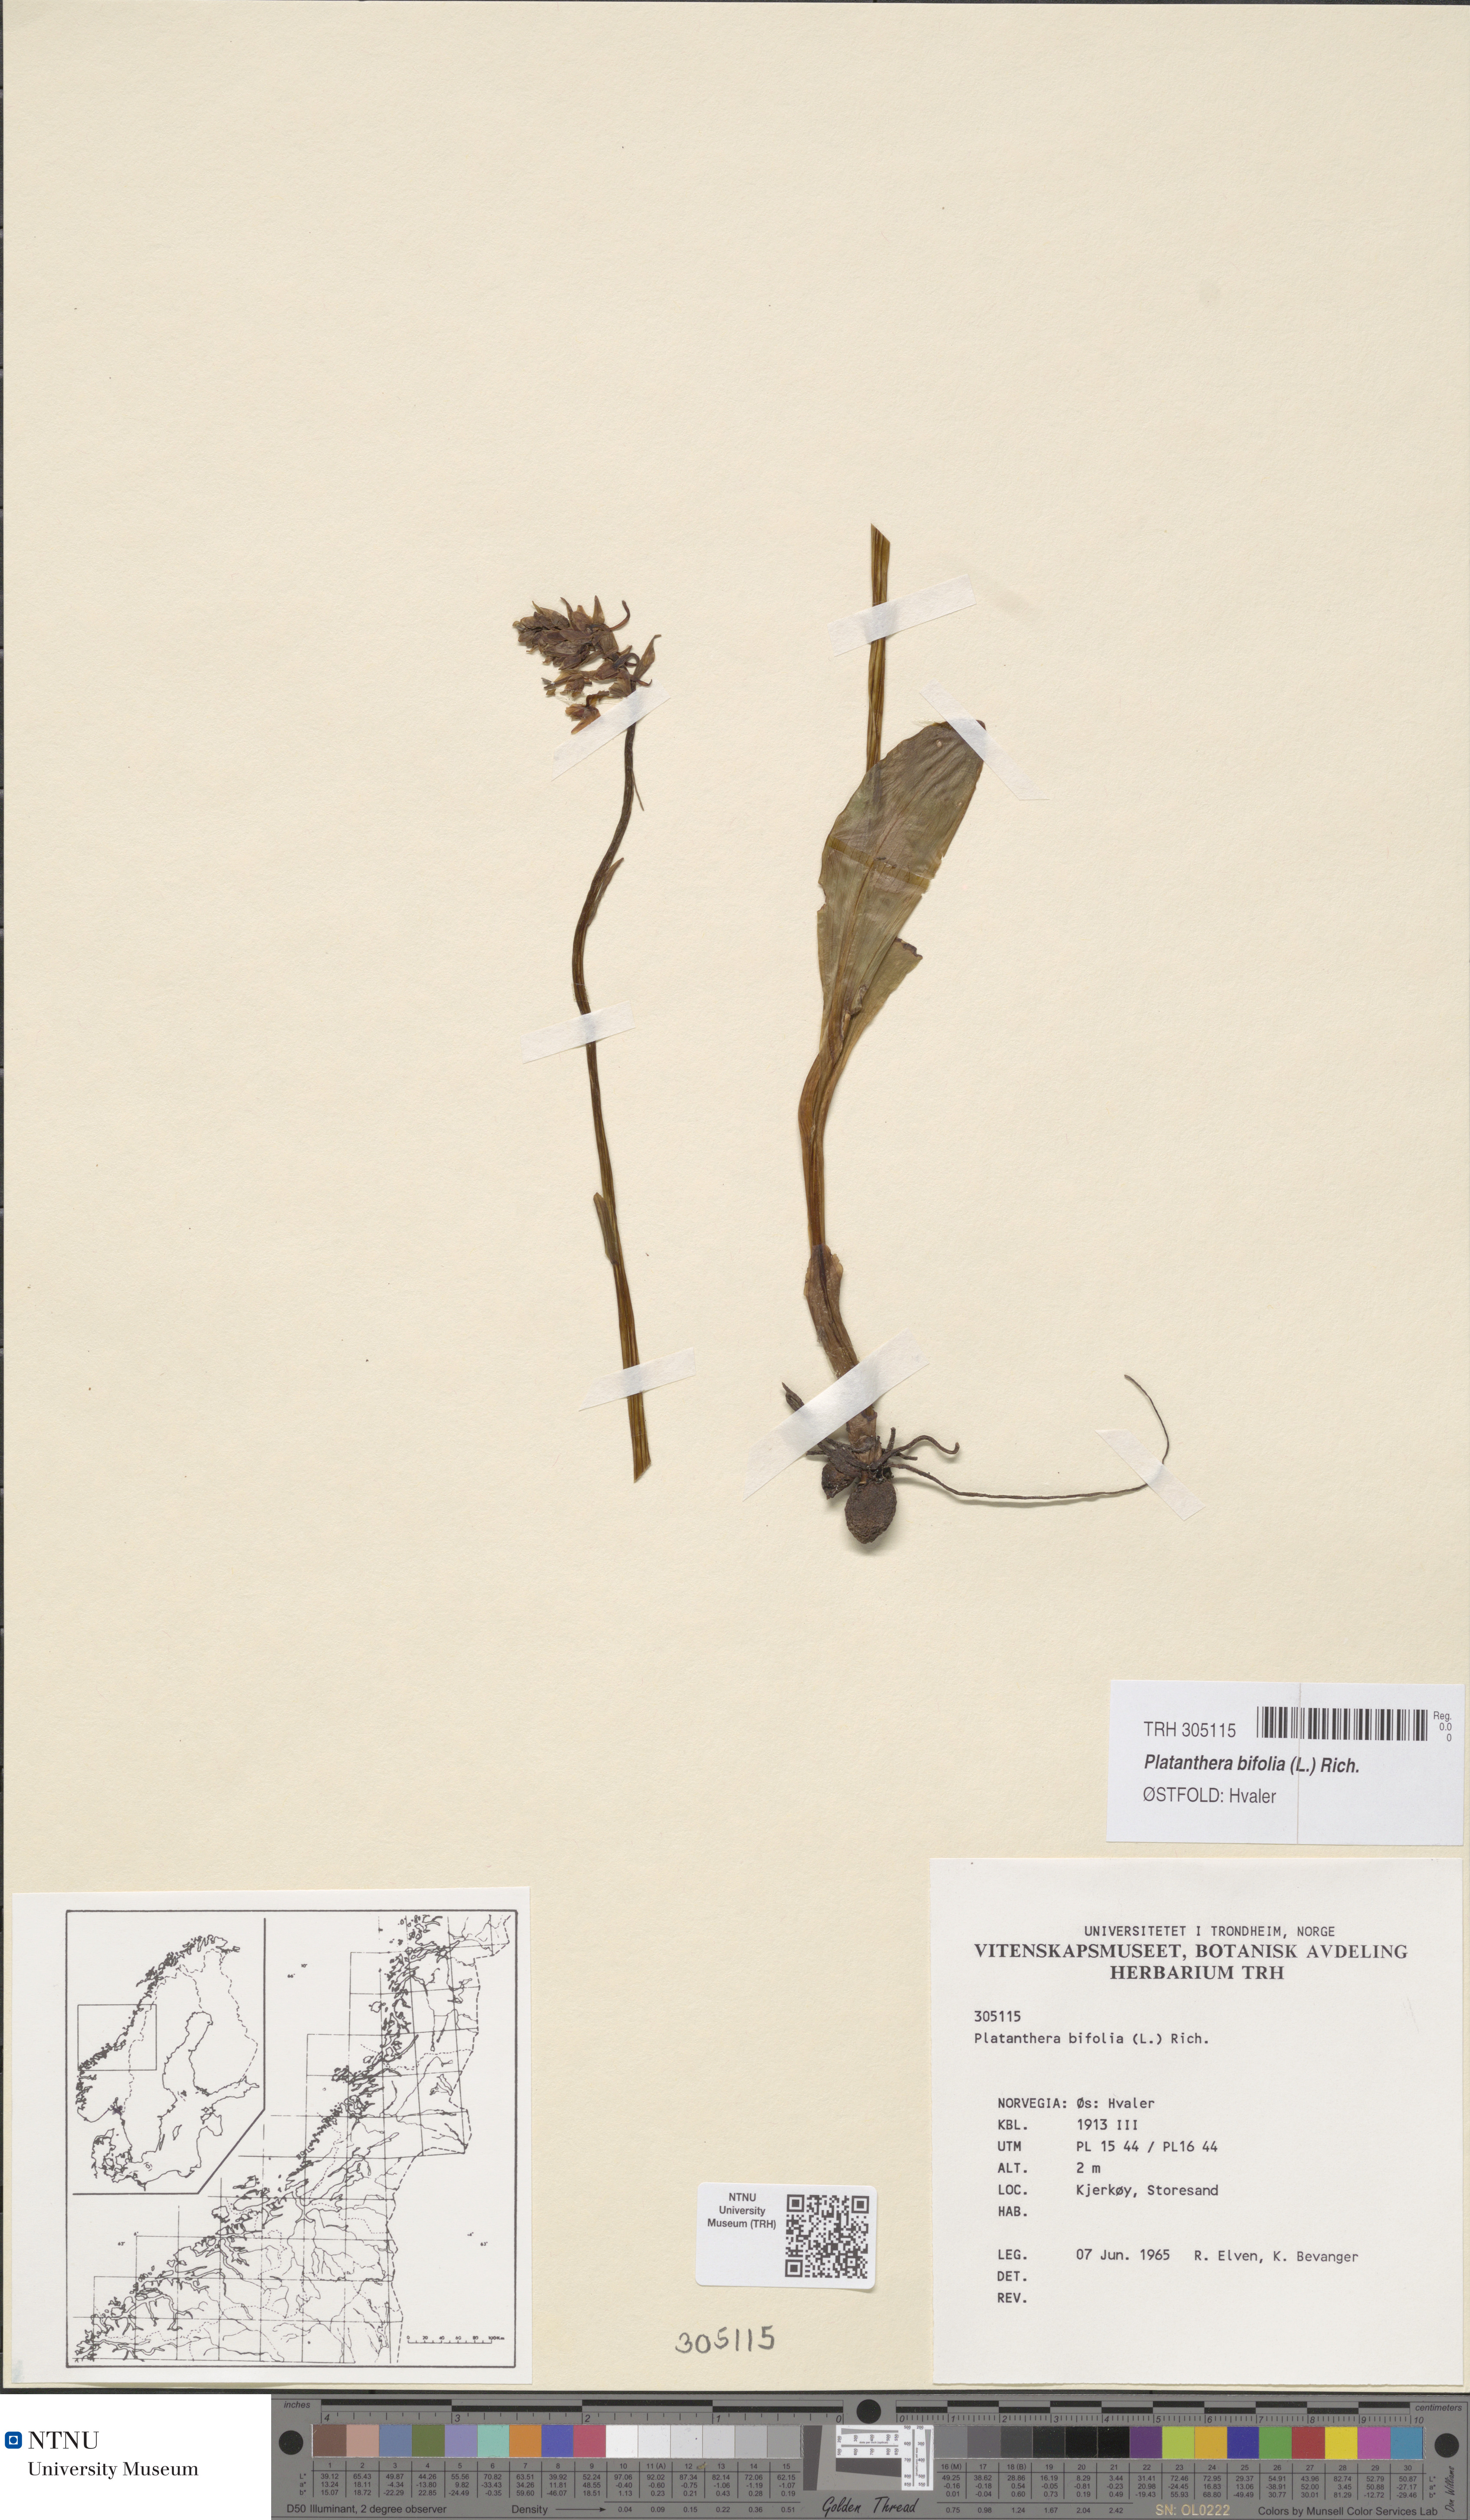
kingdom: Plantae
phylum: Tracheophyta
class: Liliopsida
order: Asparagales
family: Orchidaceae
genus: Platanthera
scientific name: Platanthera bifolia
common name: Lesser butterfly-orchid
